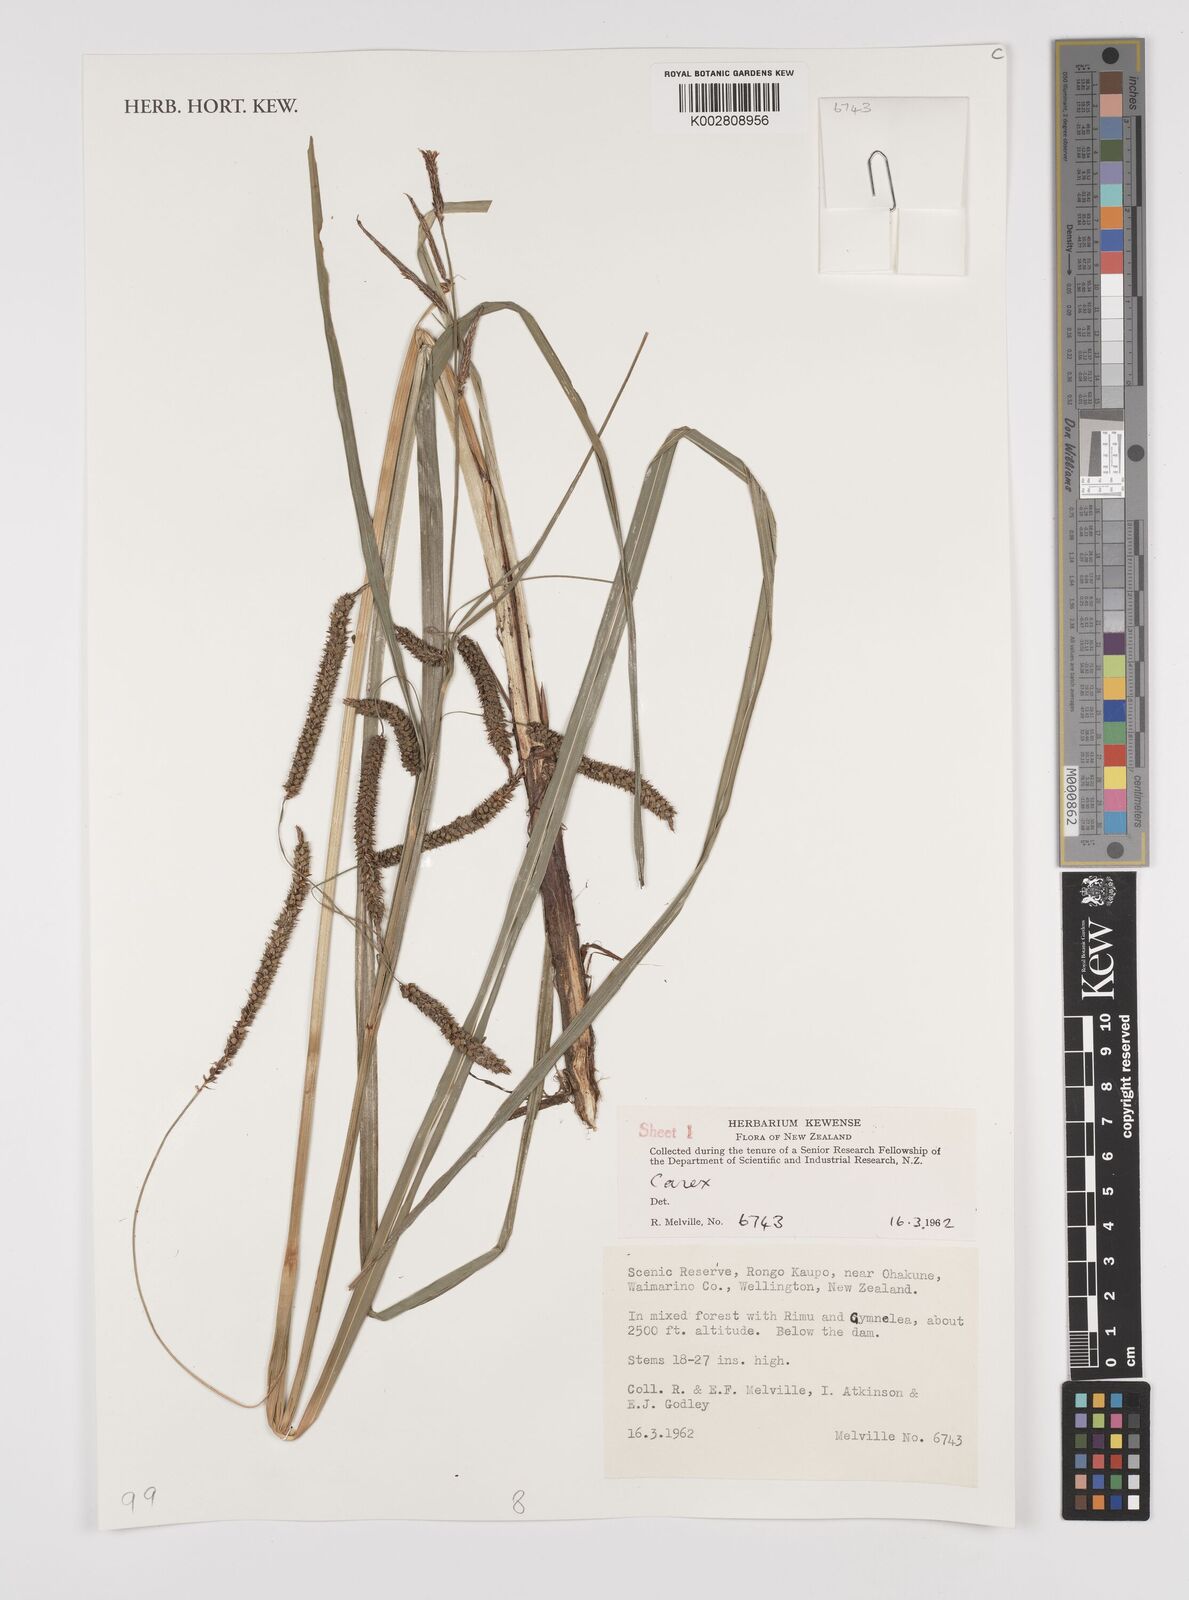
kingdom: Plantae
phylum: Tracheophyta
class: Liliopsida
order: Poales
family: Cyperaceae
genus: Carex
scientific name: Carex
